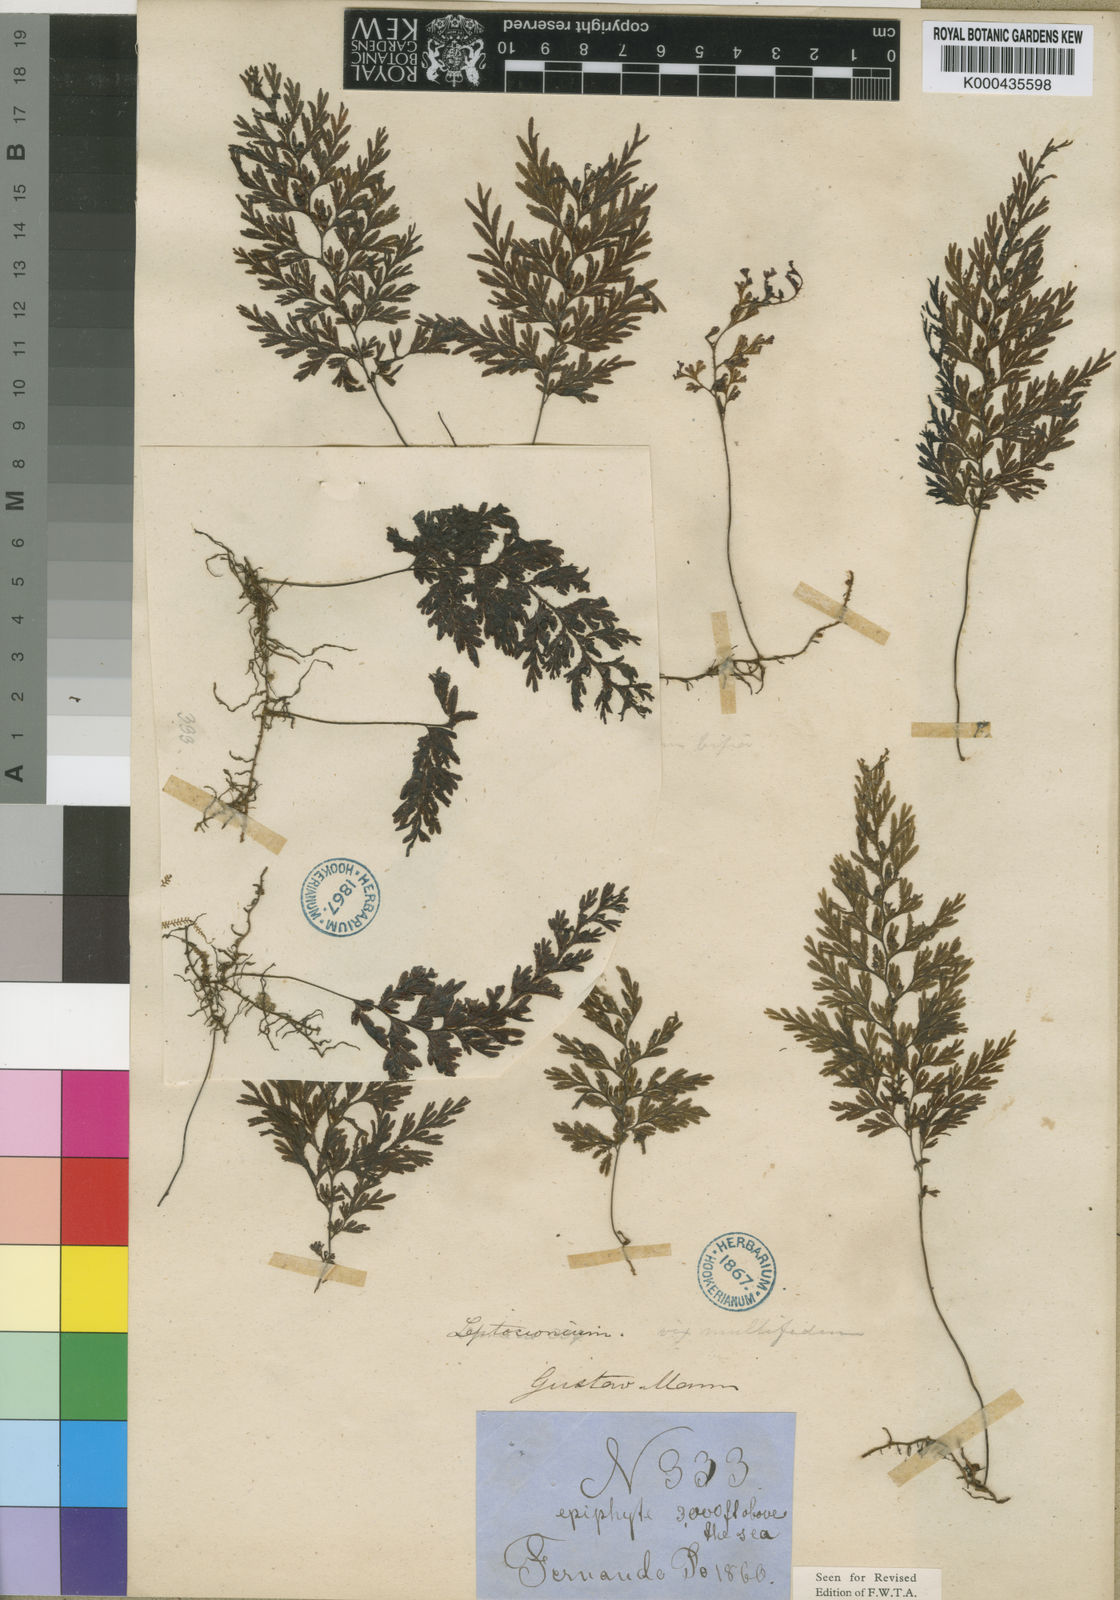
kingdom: Plantae
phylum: Tracheophyta
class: Polypodiopsida
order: Hymenophyllales
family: Hymenophyllaceae
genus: Hymenophyllum
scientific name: Hymenophyllum triangulare
